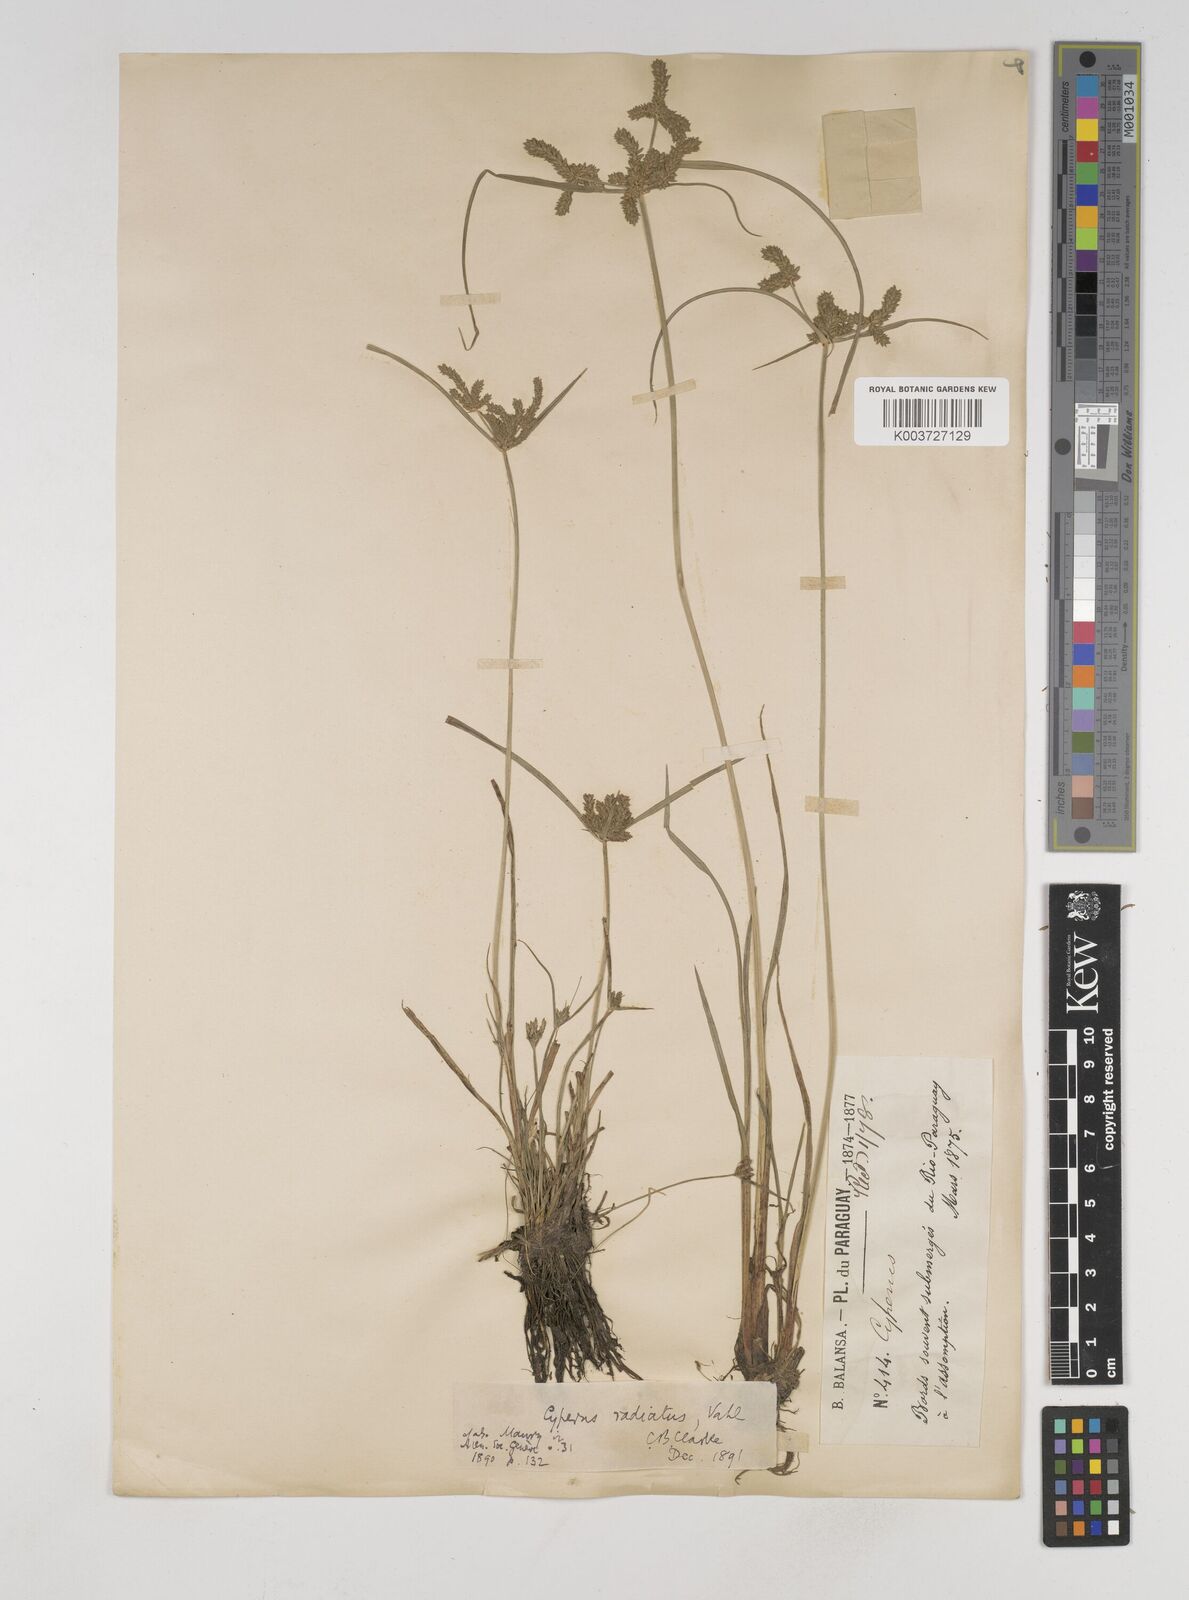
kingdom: Plantae
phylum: Tracheophyta
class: Liliopsida
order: Poales
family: Cyperaceae
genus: Cyperus
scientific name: Cyperus imbricatus
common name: Shingle flatsedge
